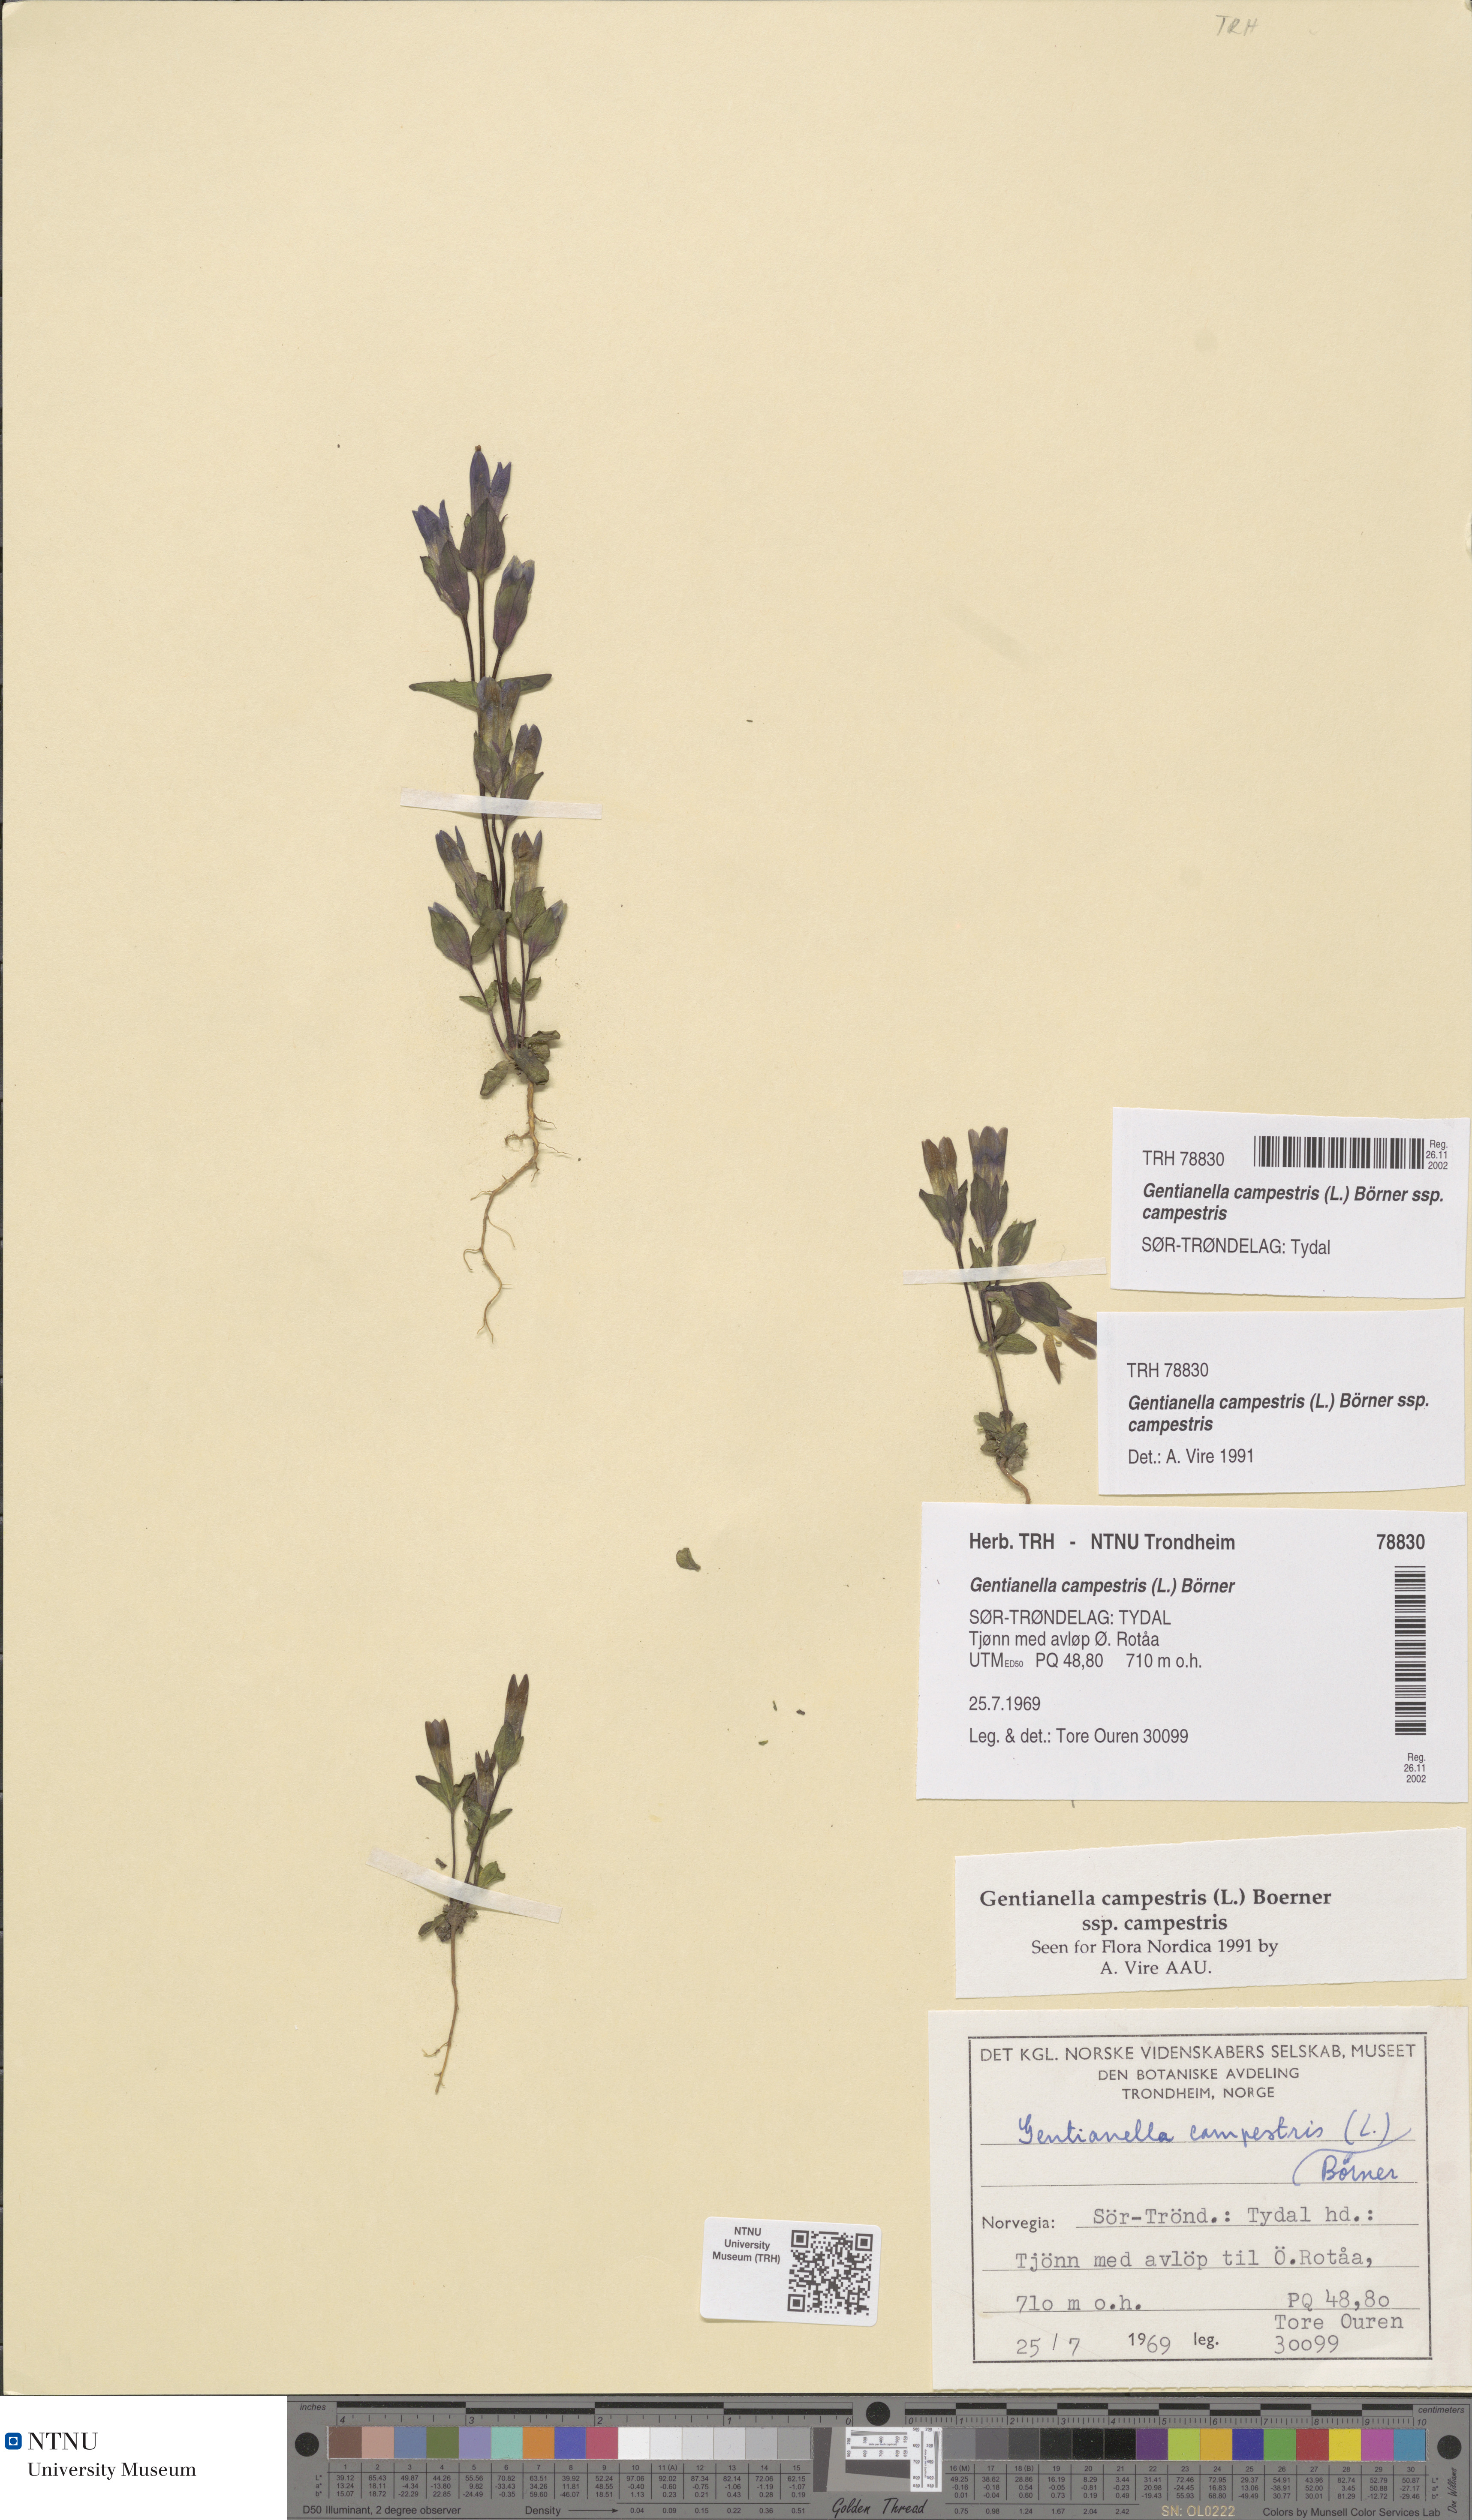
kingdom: Plantae
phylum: Tracheophyta
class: Magnoliopsida
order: Gentianales
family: Gentianaceae
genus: Gentianella
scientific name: Gentianella campestris
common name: Field gentian
